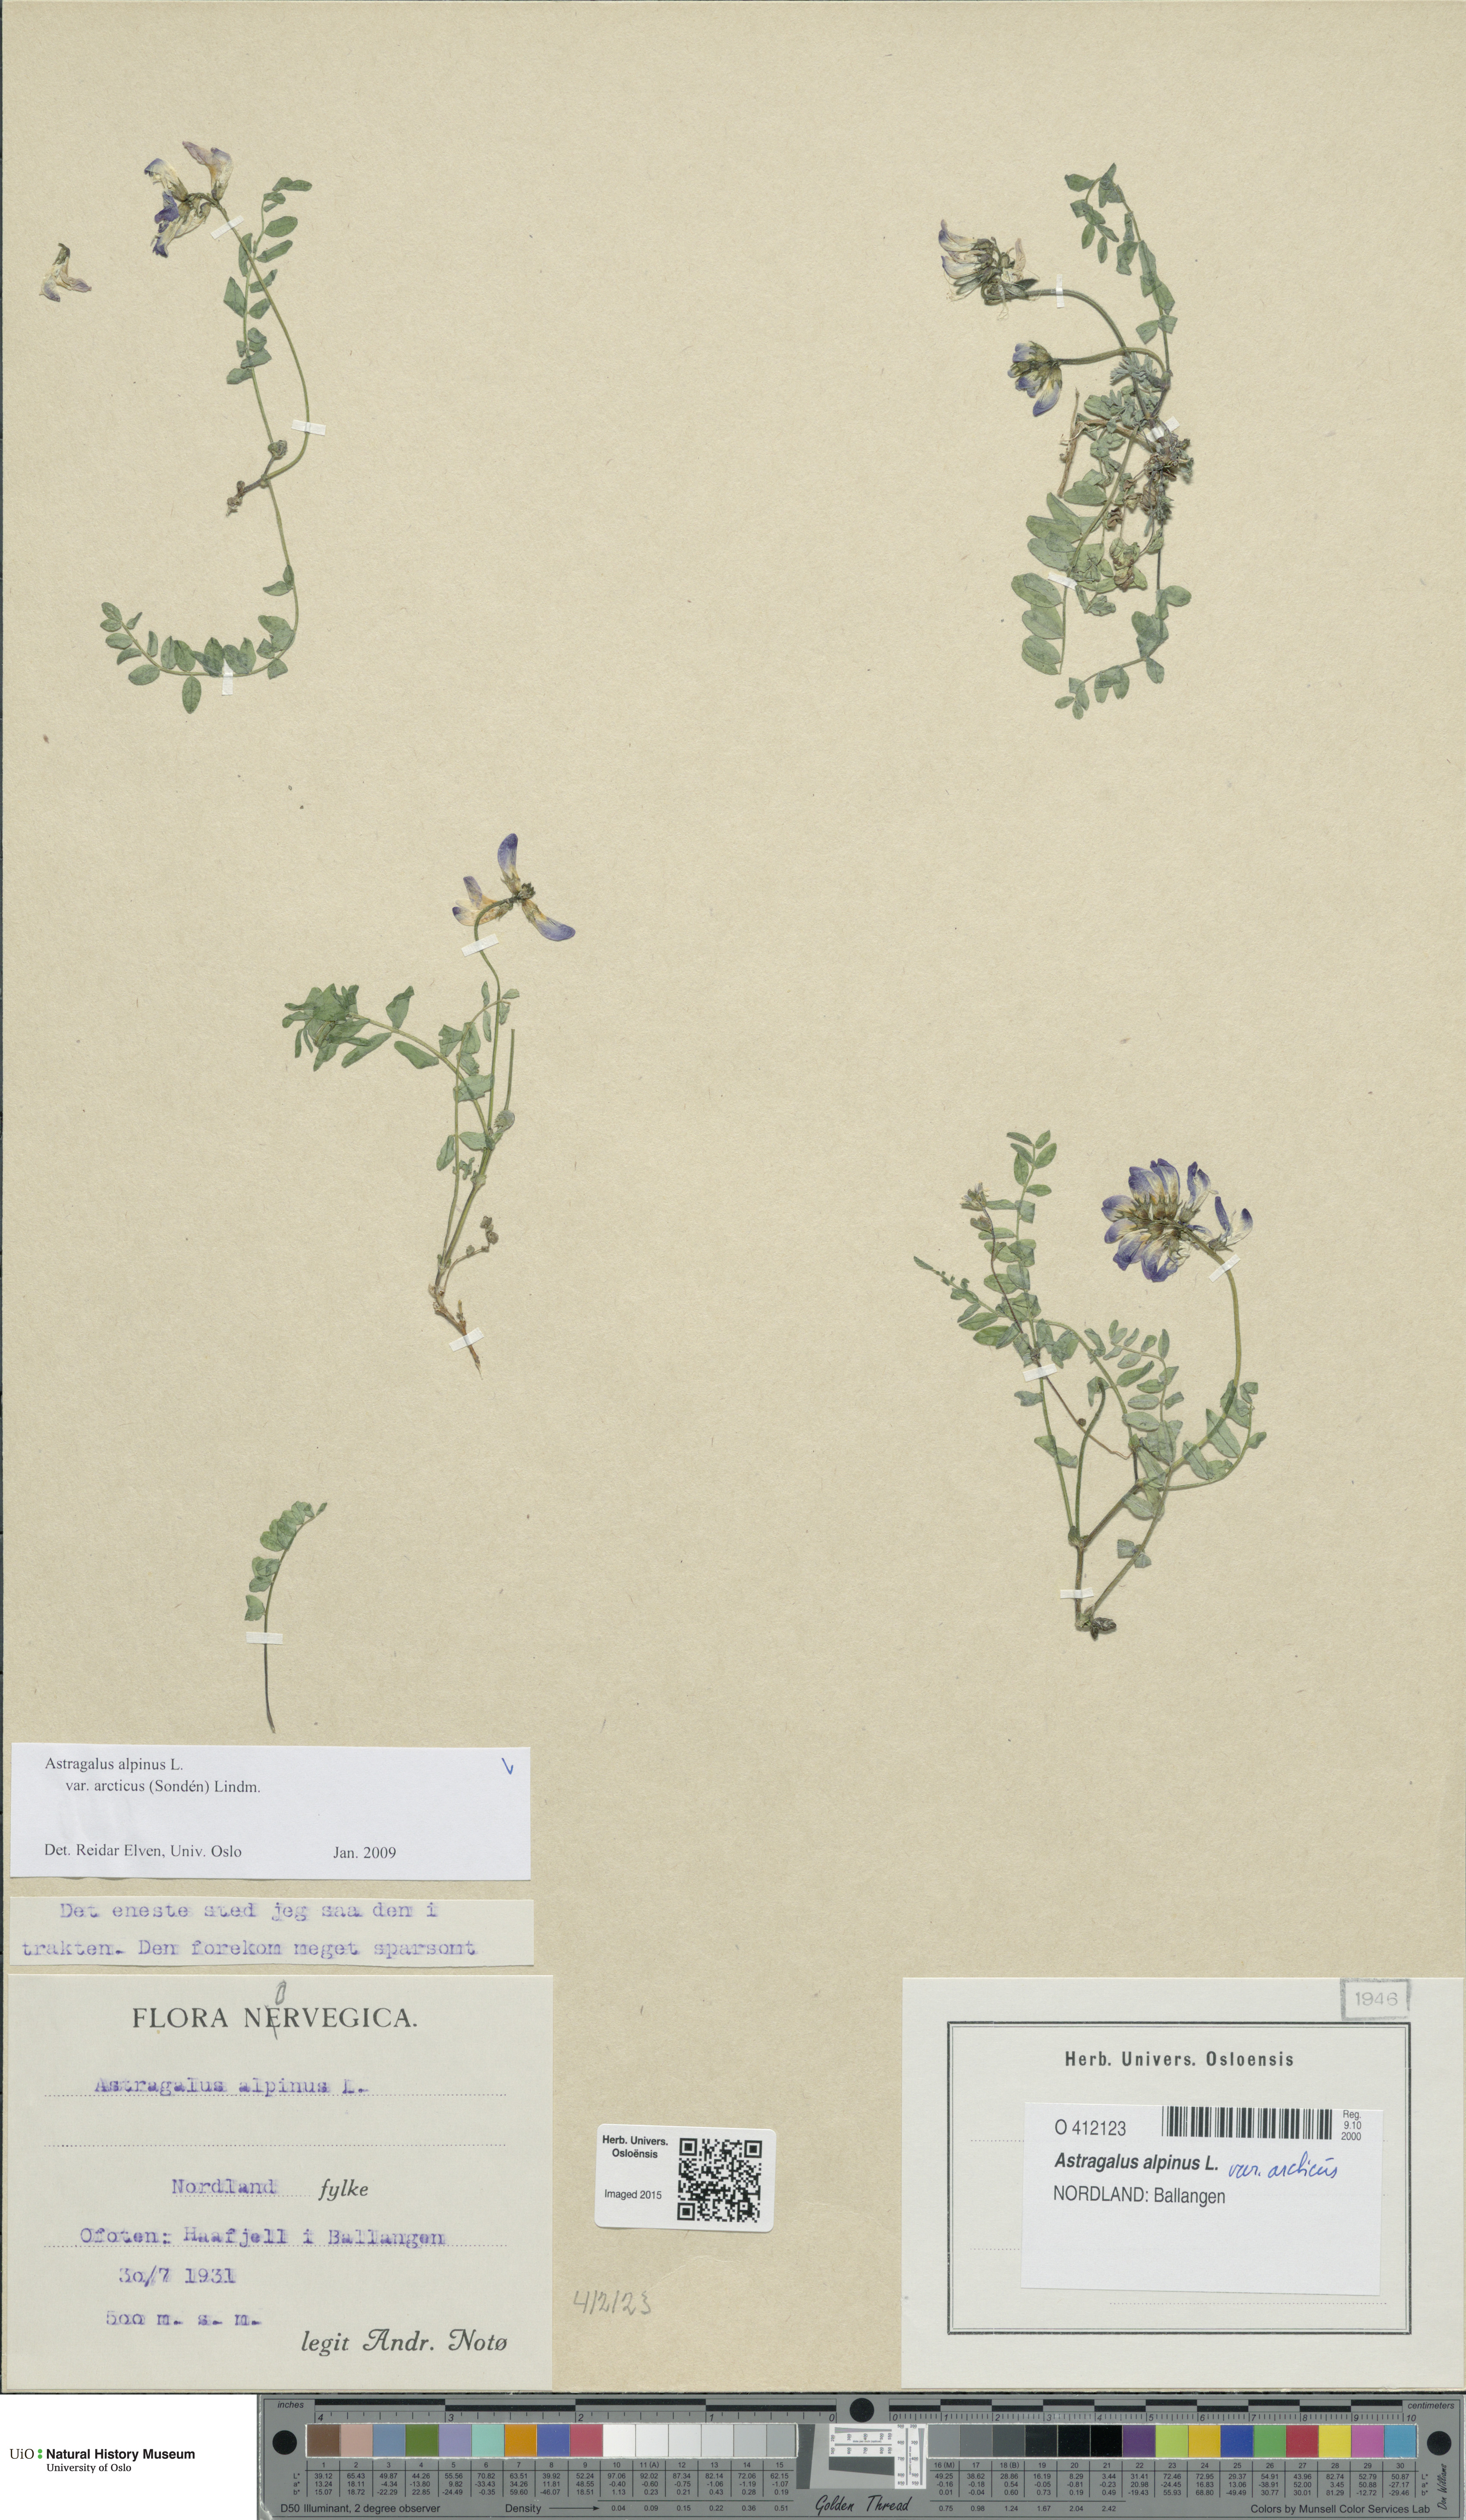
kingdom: Plantae
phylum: Tracheophyta
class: Magnoliopsida
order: Fabales
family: Fabaceae
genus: Astragalus
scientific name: Astragalus norvegicus
